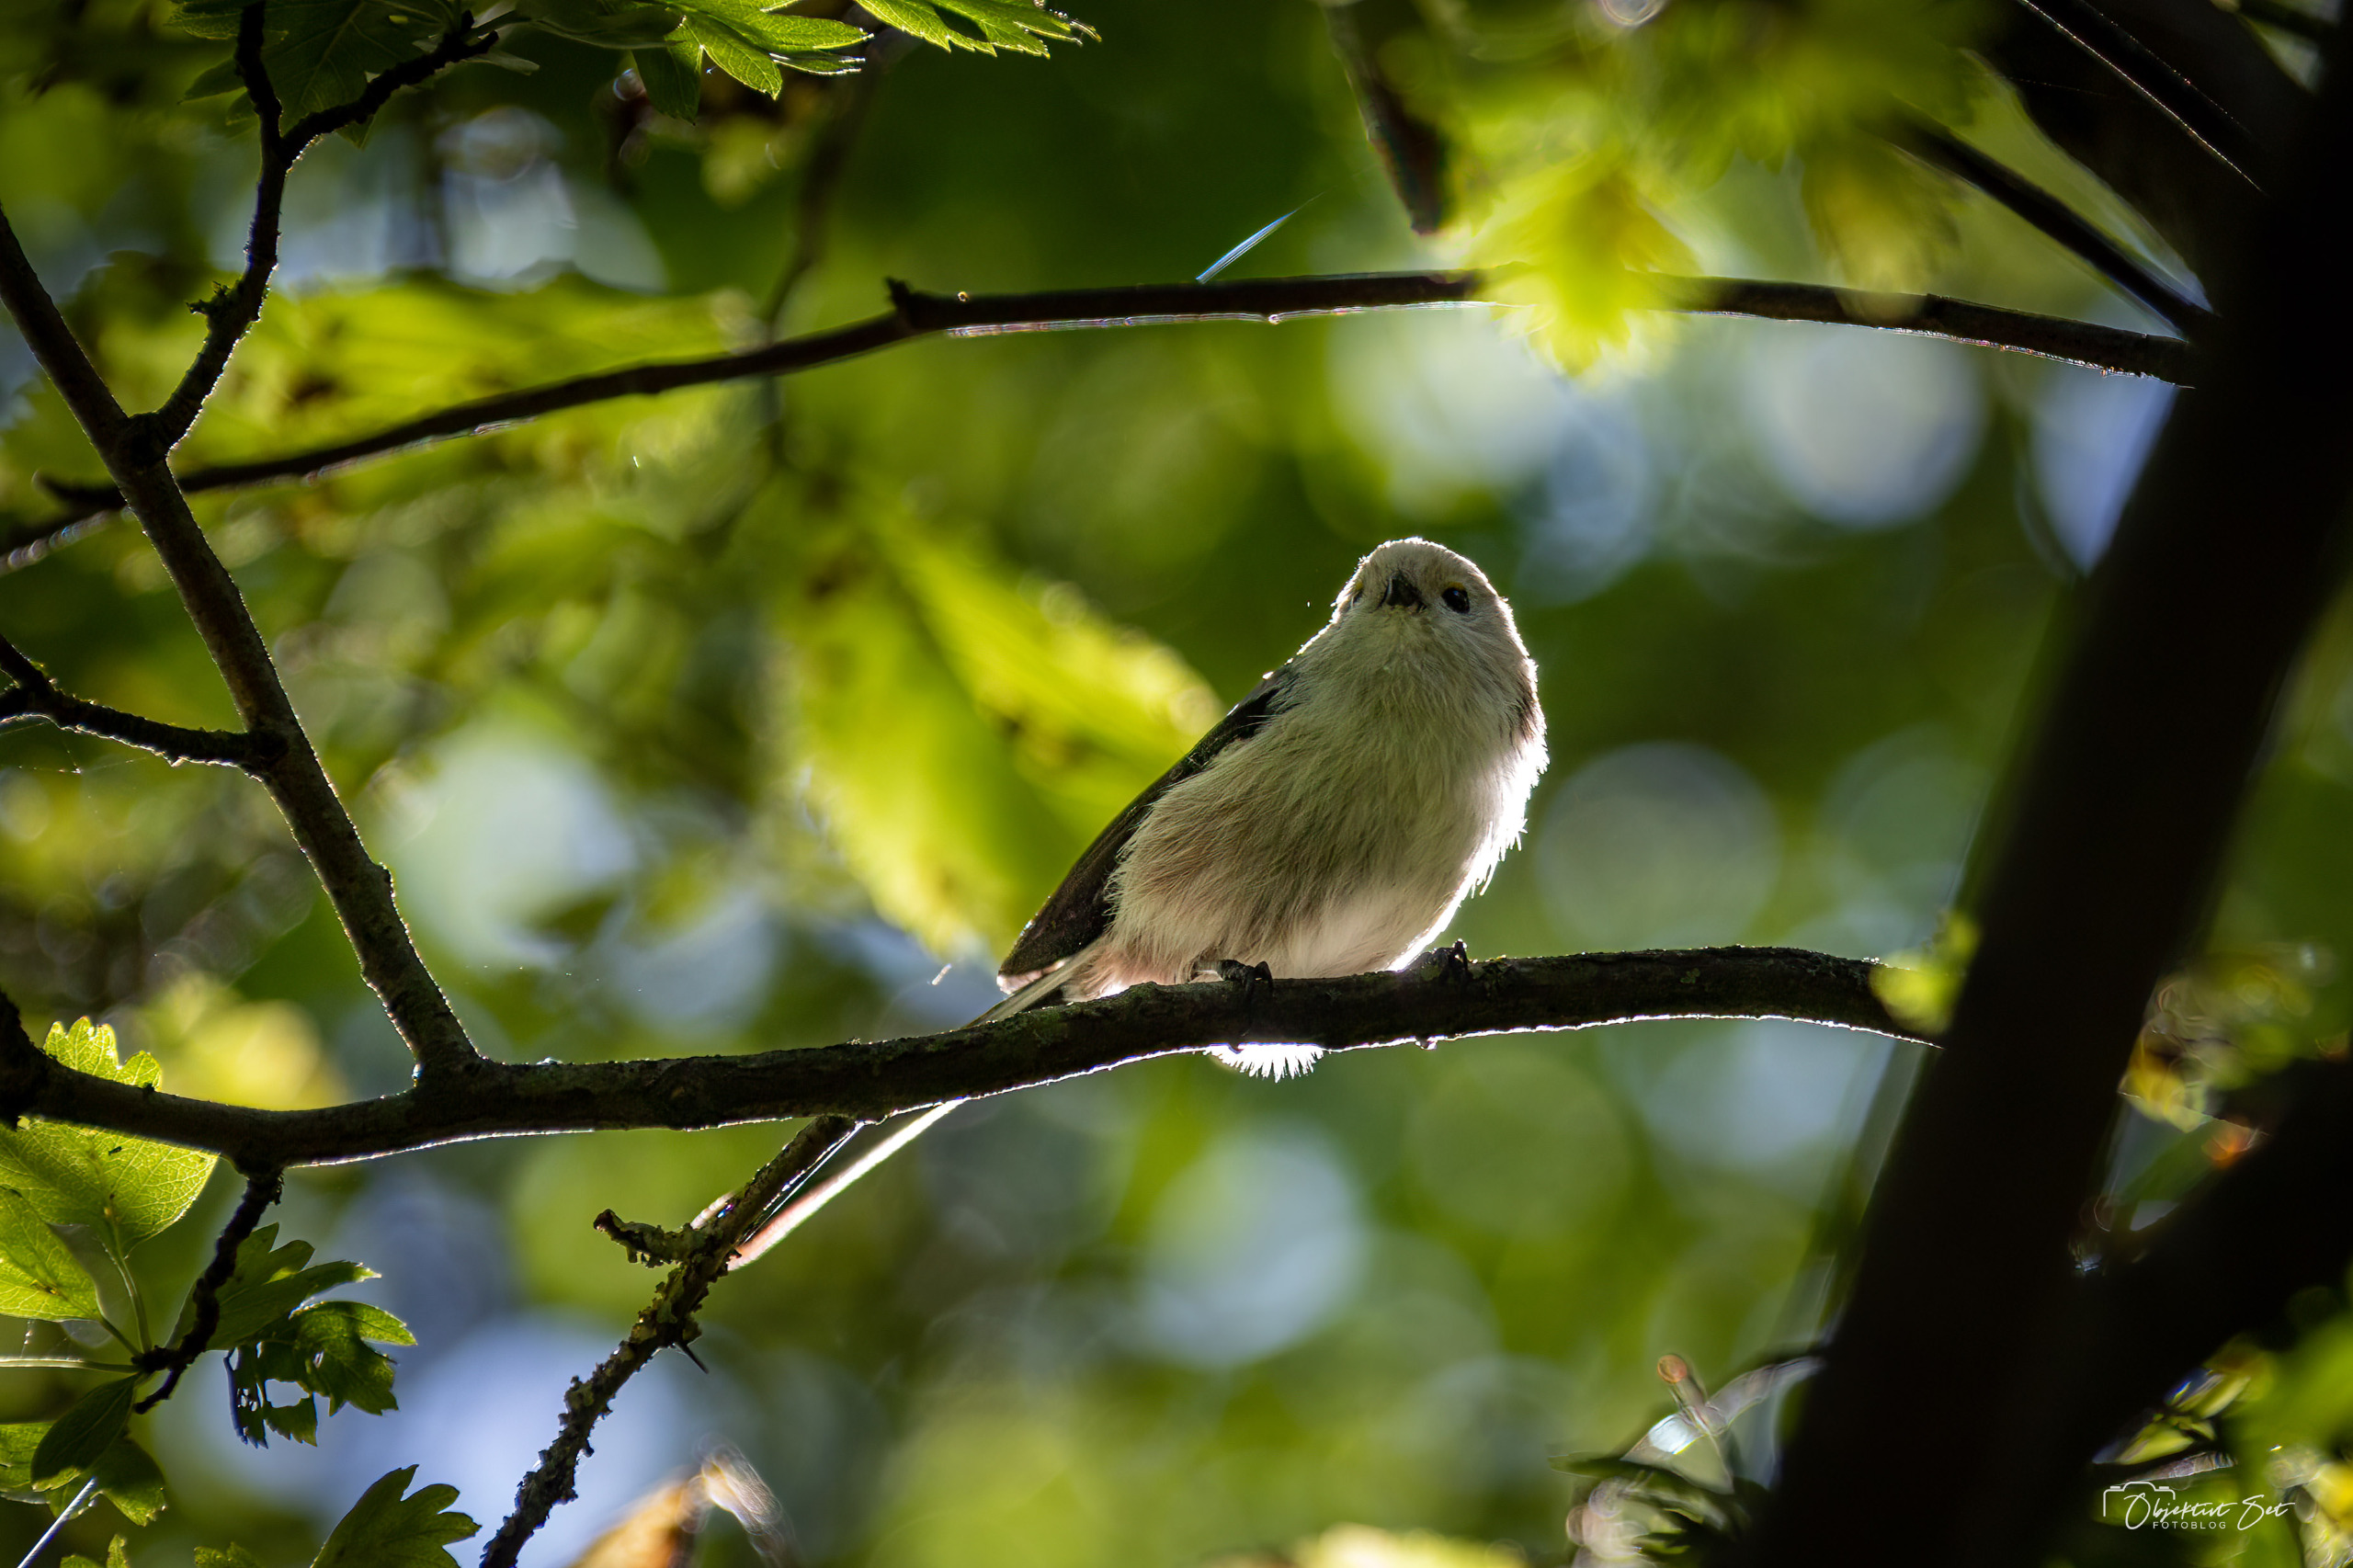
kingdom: Animalia
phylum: Chordata
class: Aves
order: Passeriformes
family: Aegithalidae
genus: Aegithalos
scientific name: Aegithalos caudatus
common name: Halemejse
